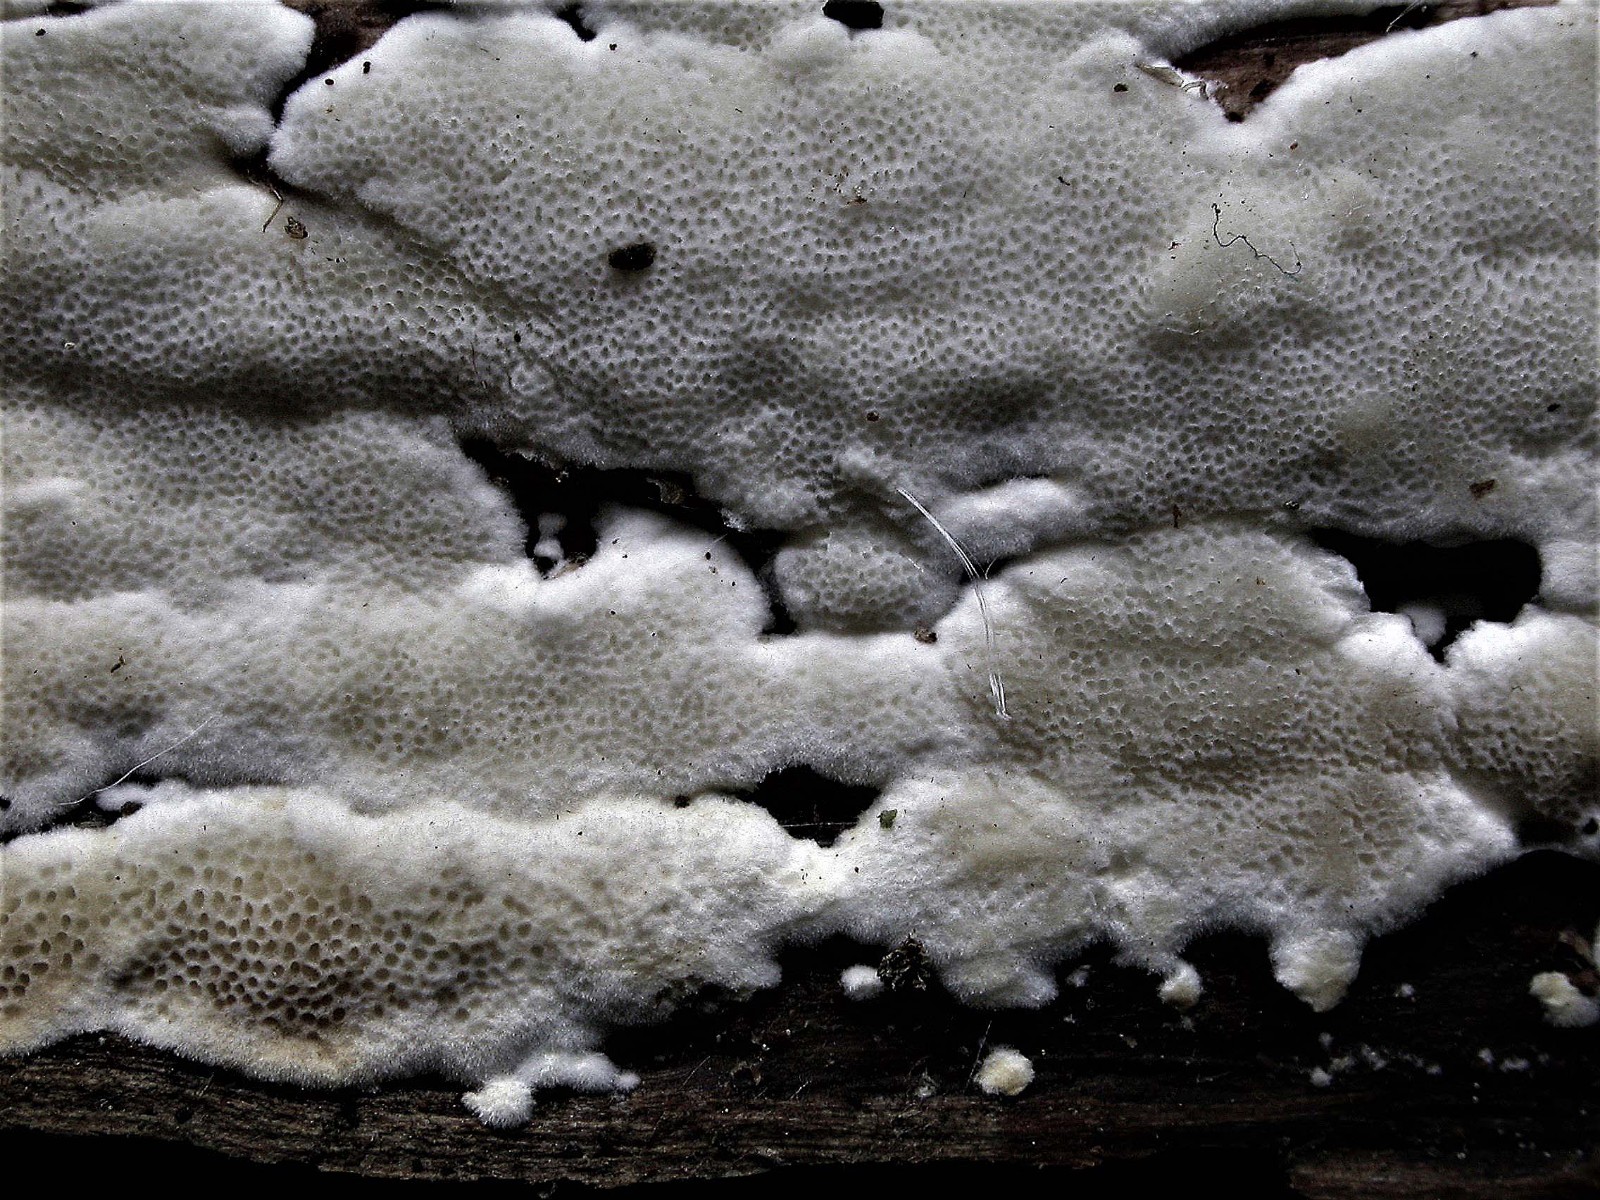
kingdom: Fungi
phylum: Basidiomycota
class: Agaricomycetes
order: Polyporales
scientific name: Polyporales
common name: poresvampordenen
